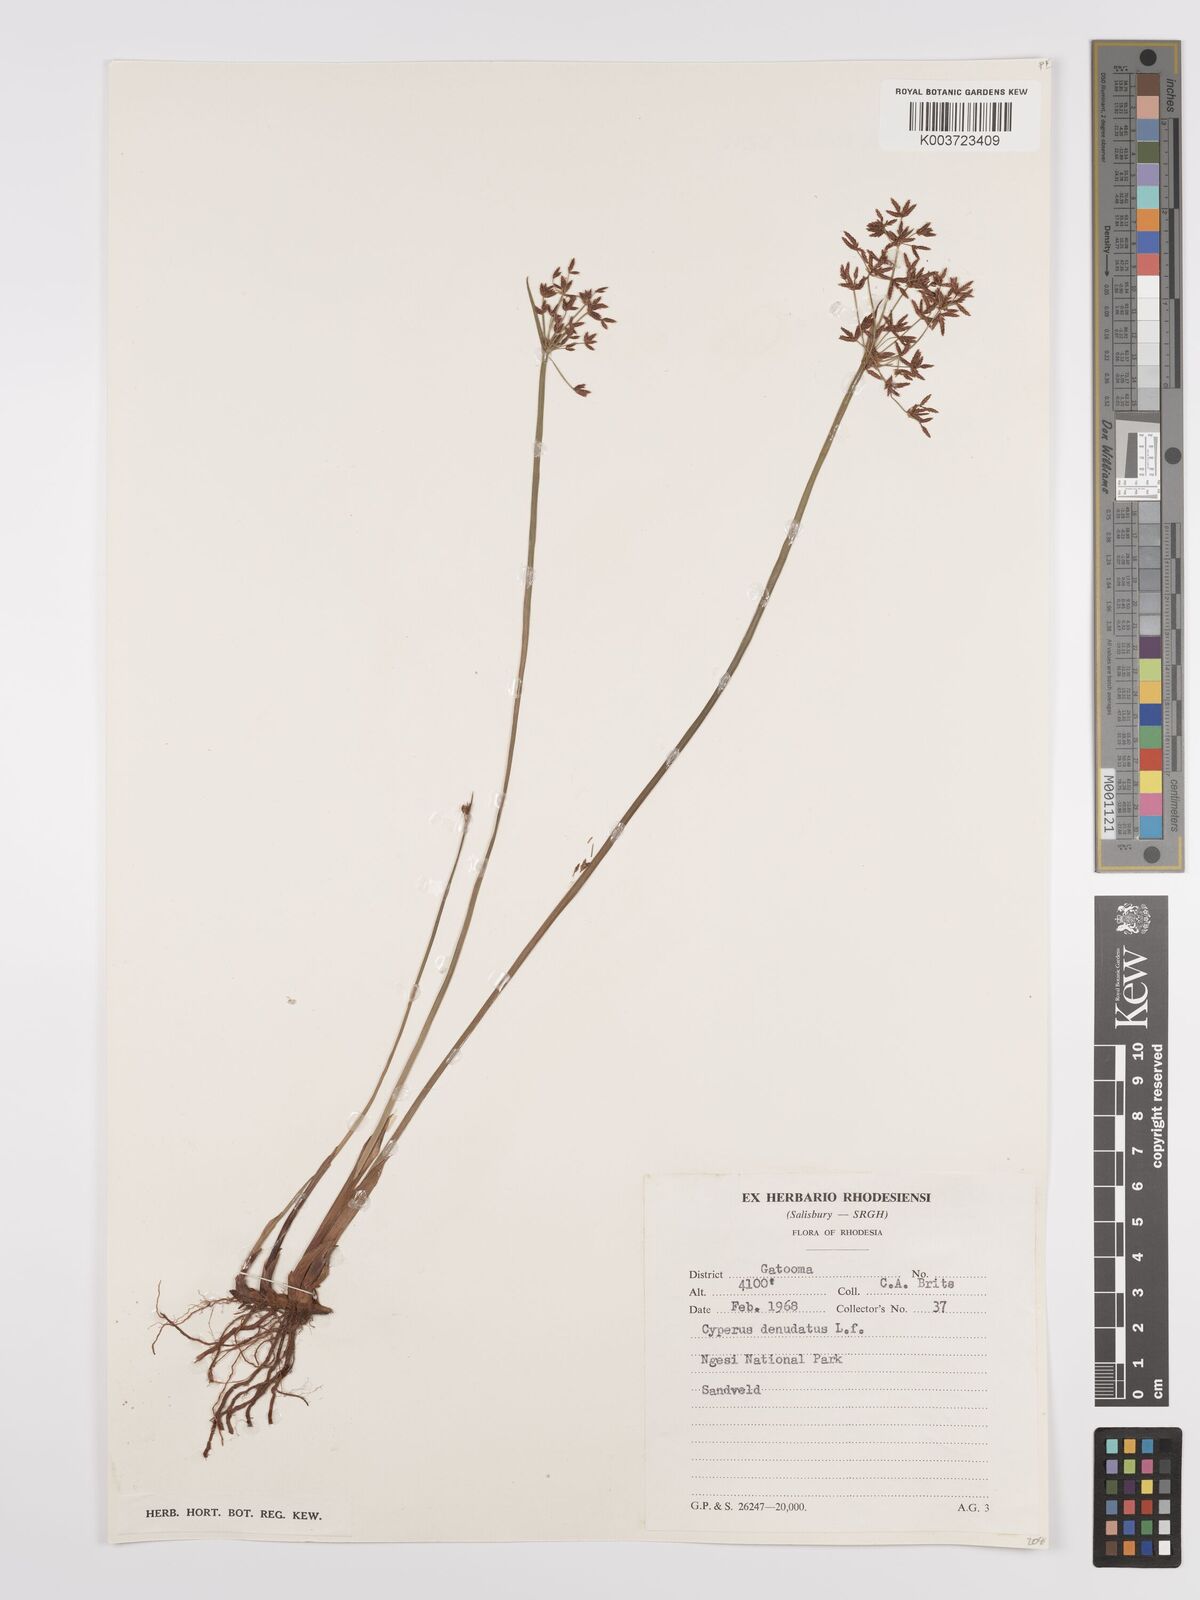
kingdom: Plantae
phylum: Tracheophyta
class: Liliopsida
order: Poales
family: Cyperaceae
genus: Cyperus
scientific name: Cyperus denudatus
